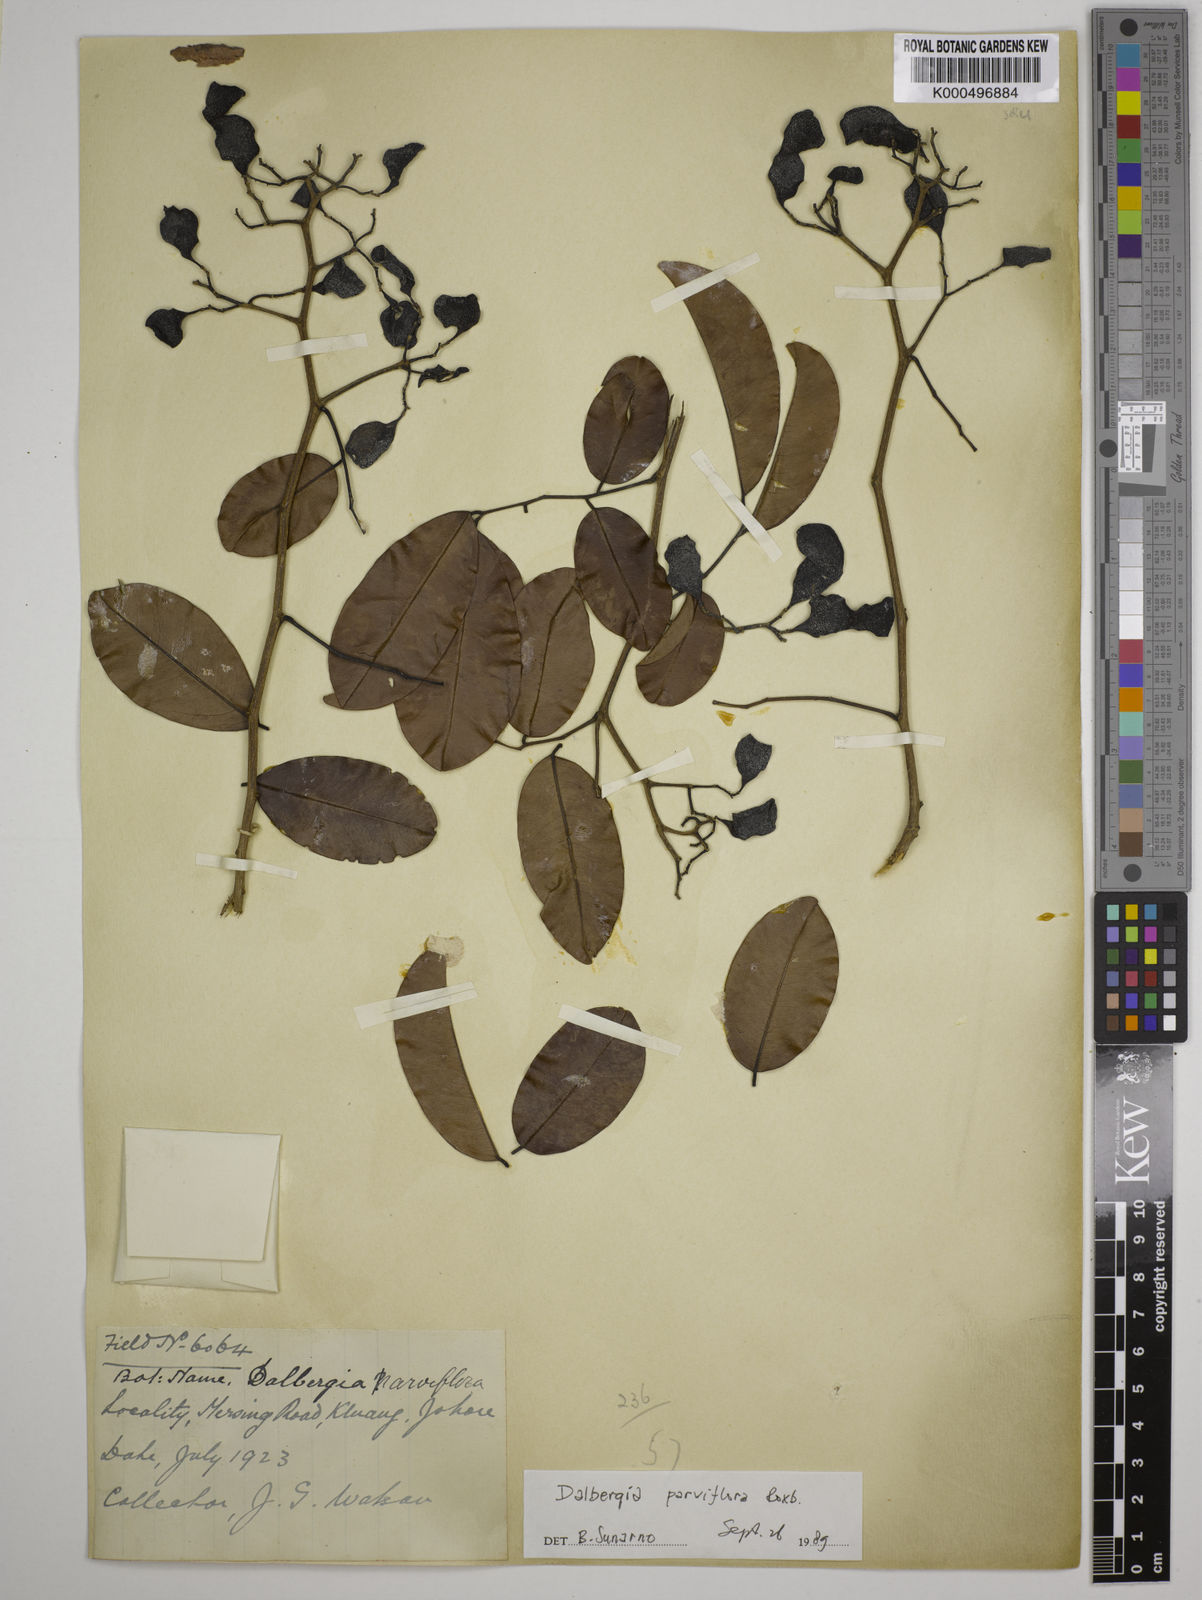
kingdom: Plantae
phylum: Tracheophyta
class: Magnoliopsida
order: Fabales
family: Fabaceae
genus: Dalbergia
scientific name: Dalbergia parviflora
